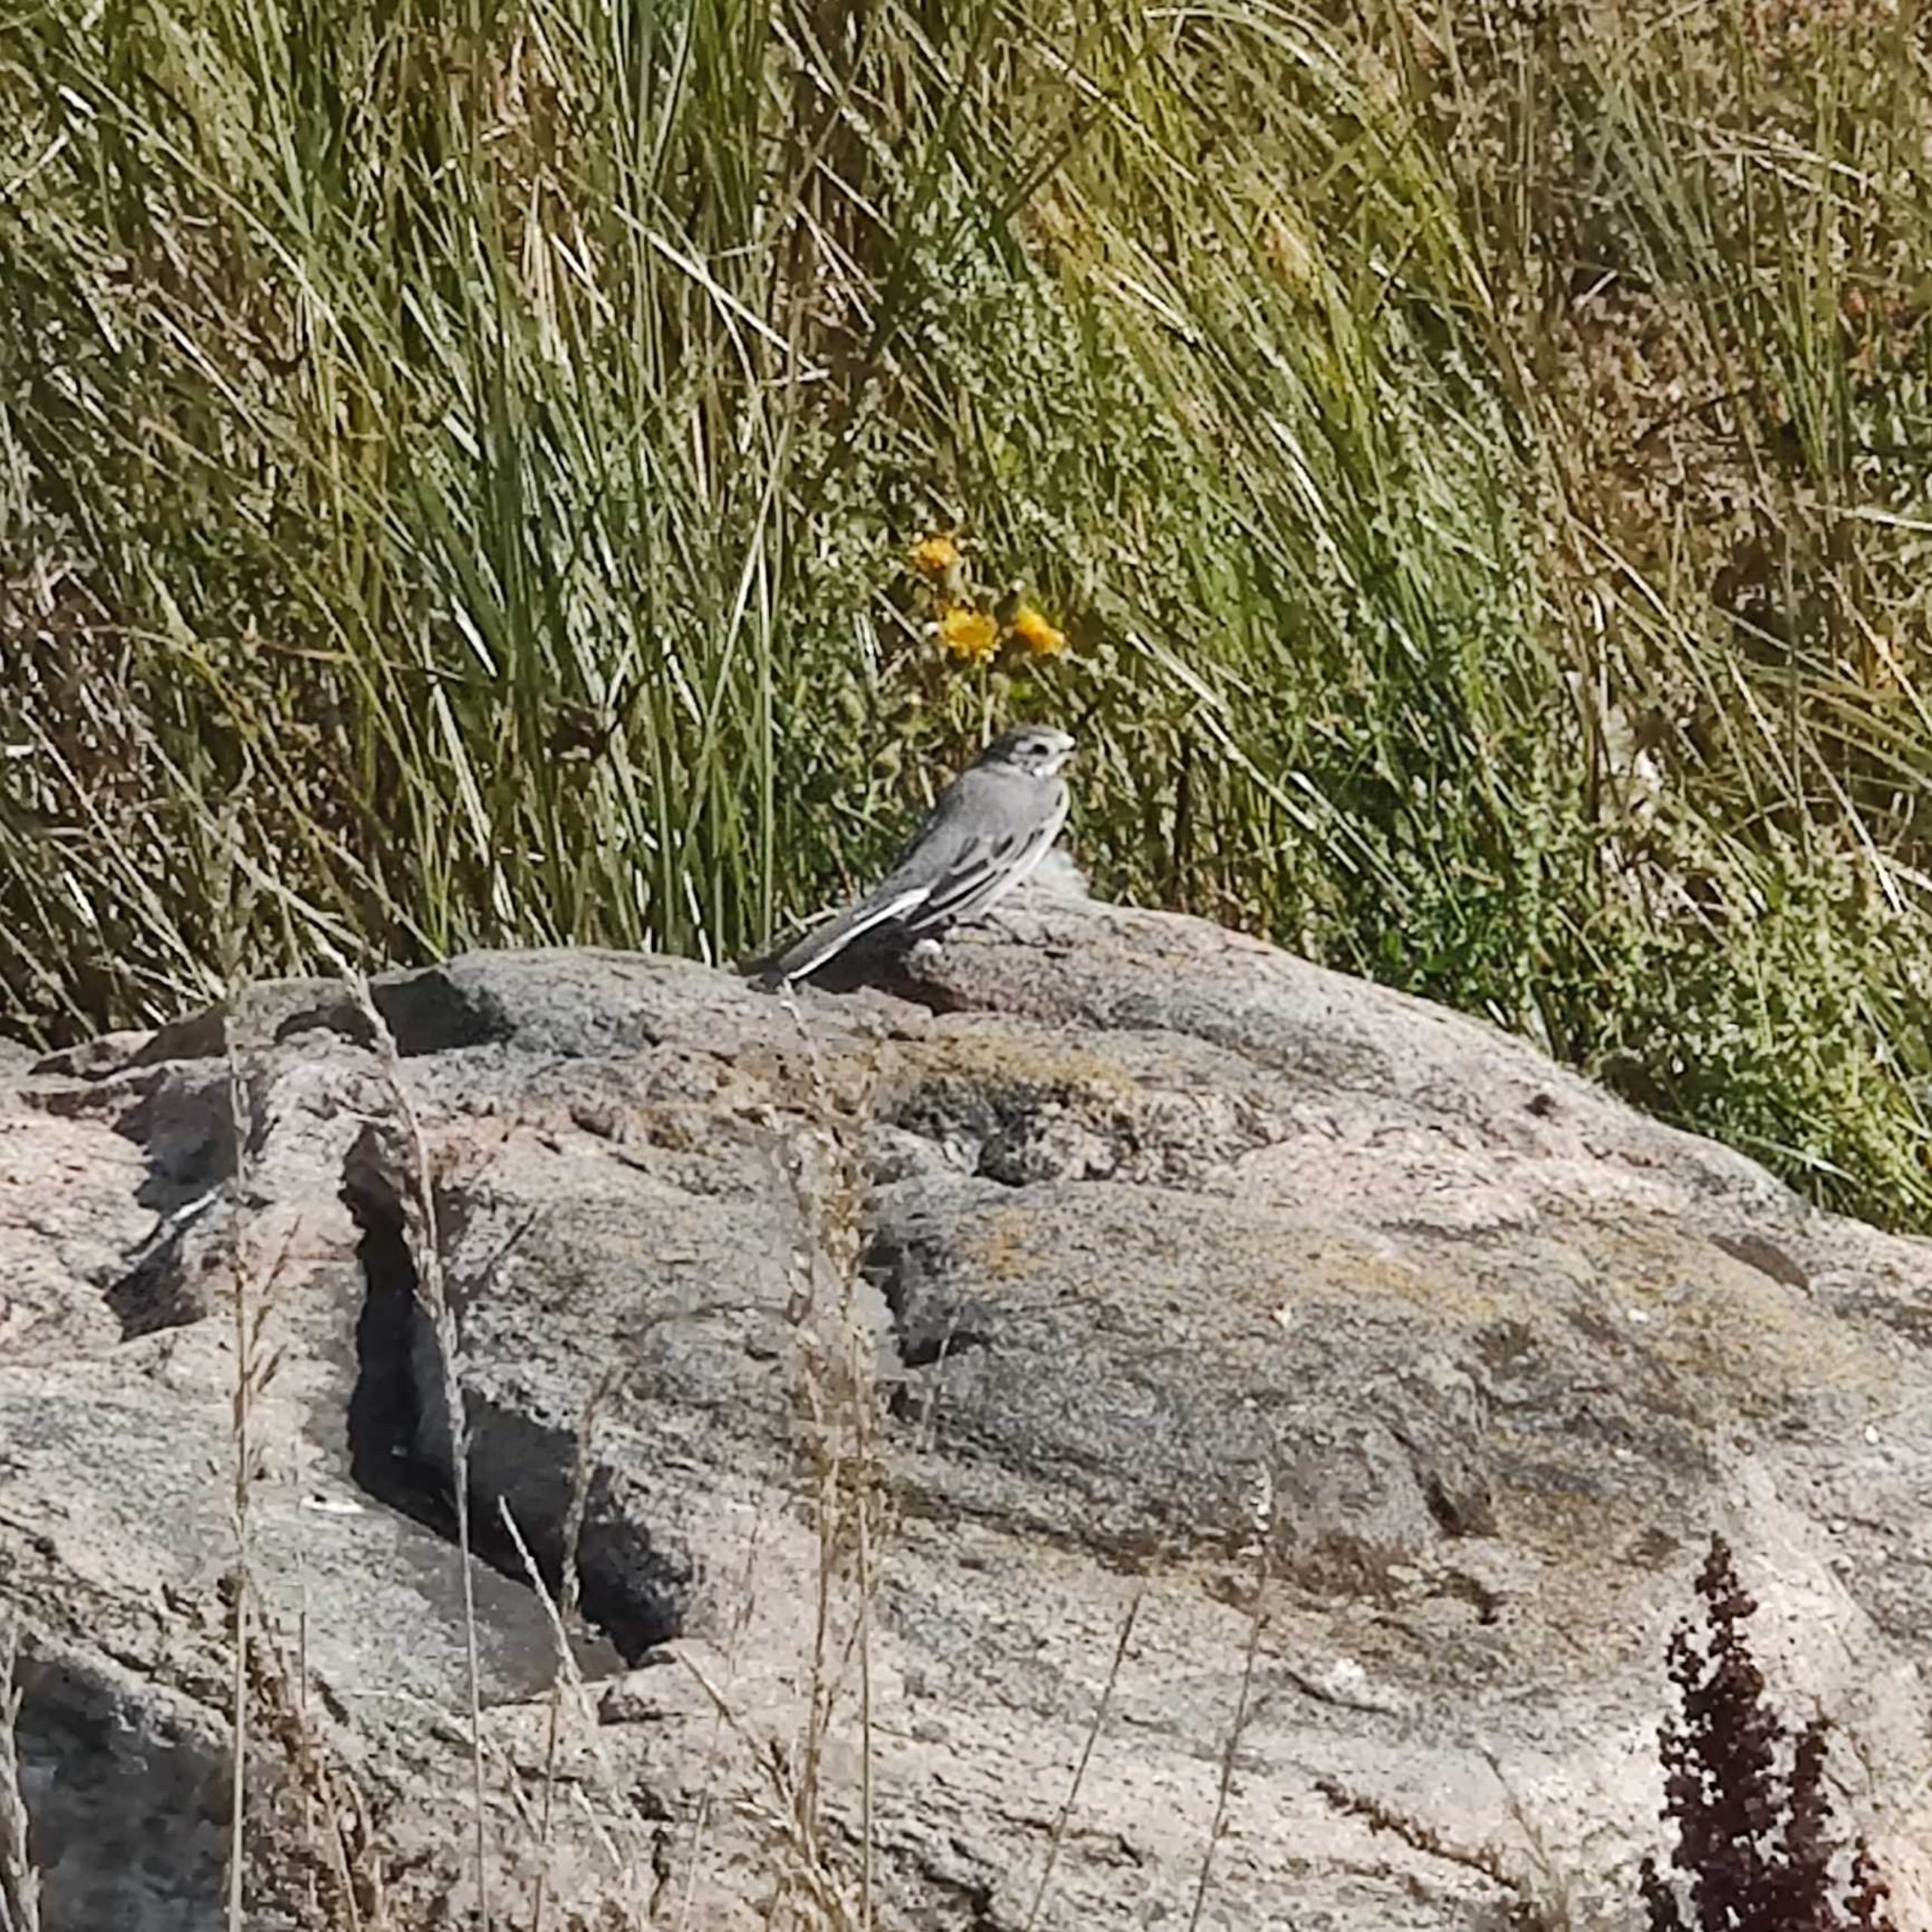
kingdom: Animalia
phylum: Chordata
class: Aves
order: Passeriformes
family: Motacillidae
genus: Motacilla
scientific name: Motacilla alba
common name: Hvid vipstjert
